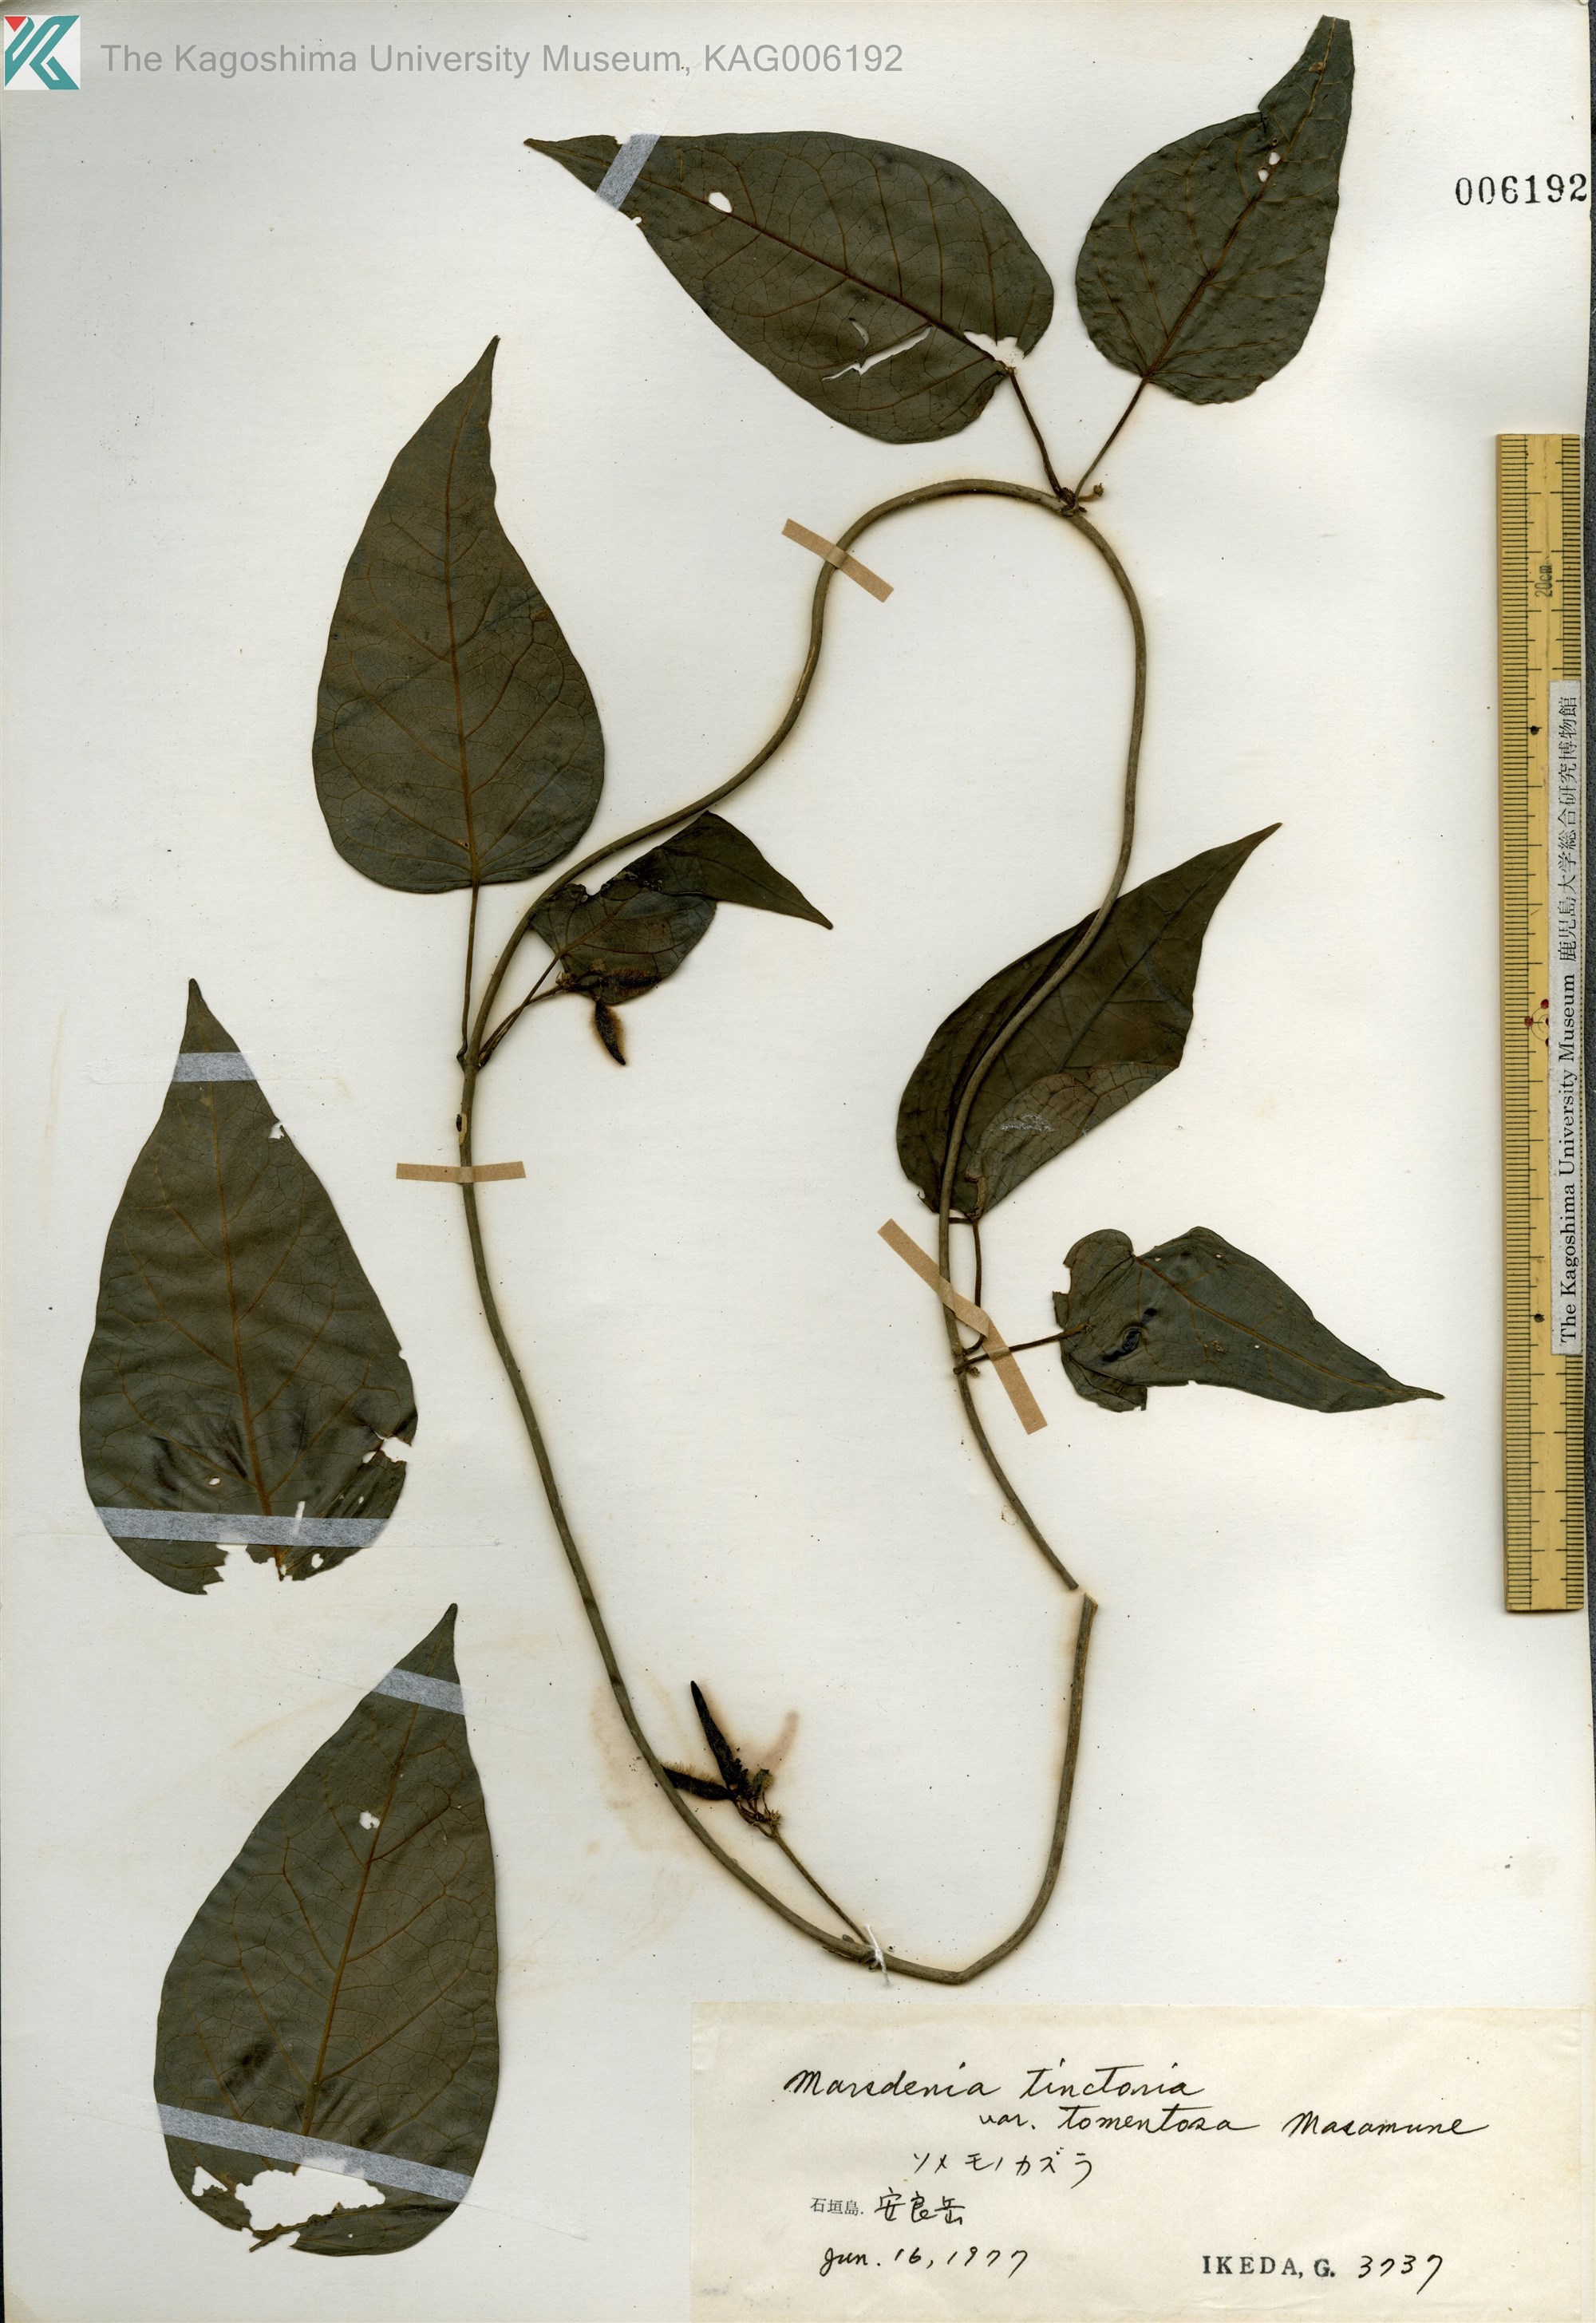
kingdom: Plantae
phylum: Tracheophyta
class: Magnoliopsida
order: Gentianales
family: Apocynaceae
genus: Marsdenia
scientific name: Marsdenia tinctoria
